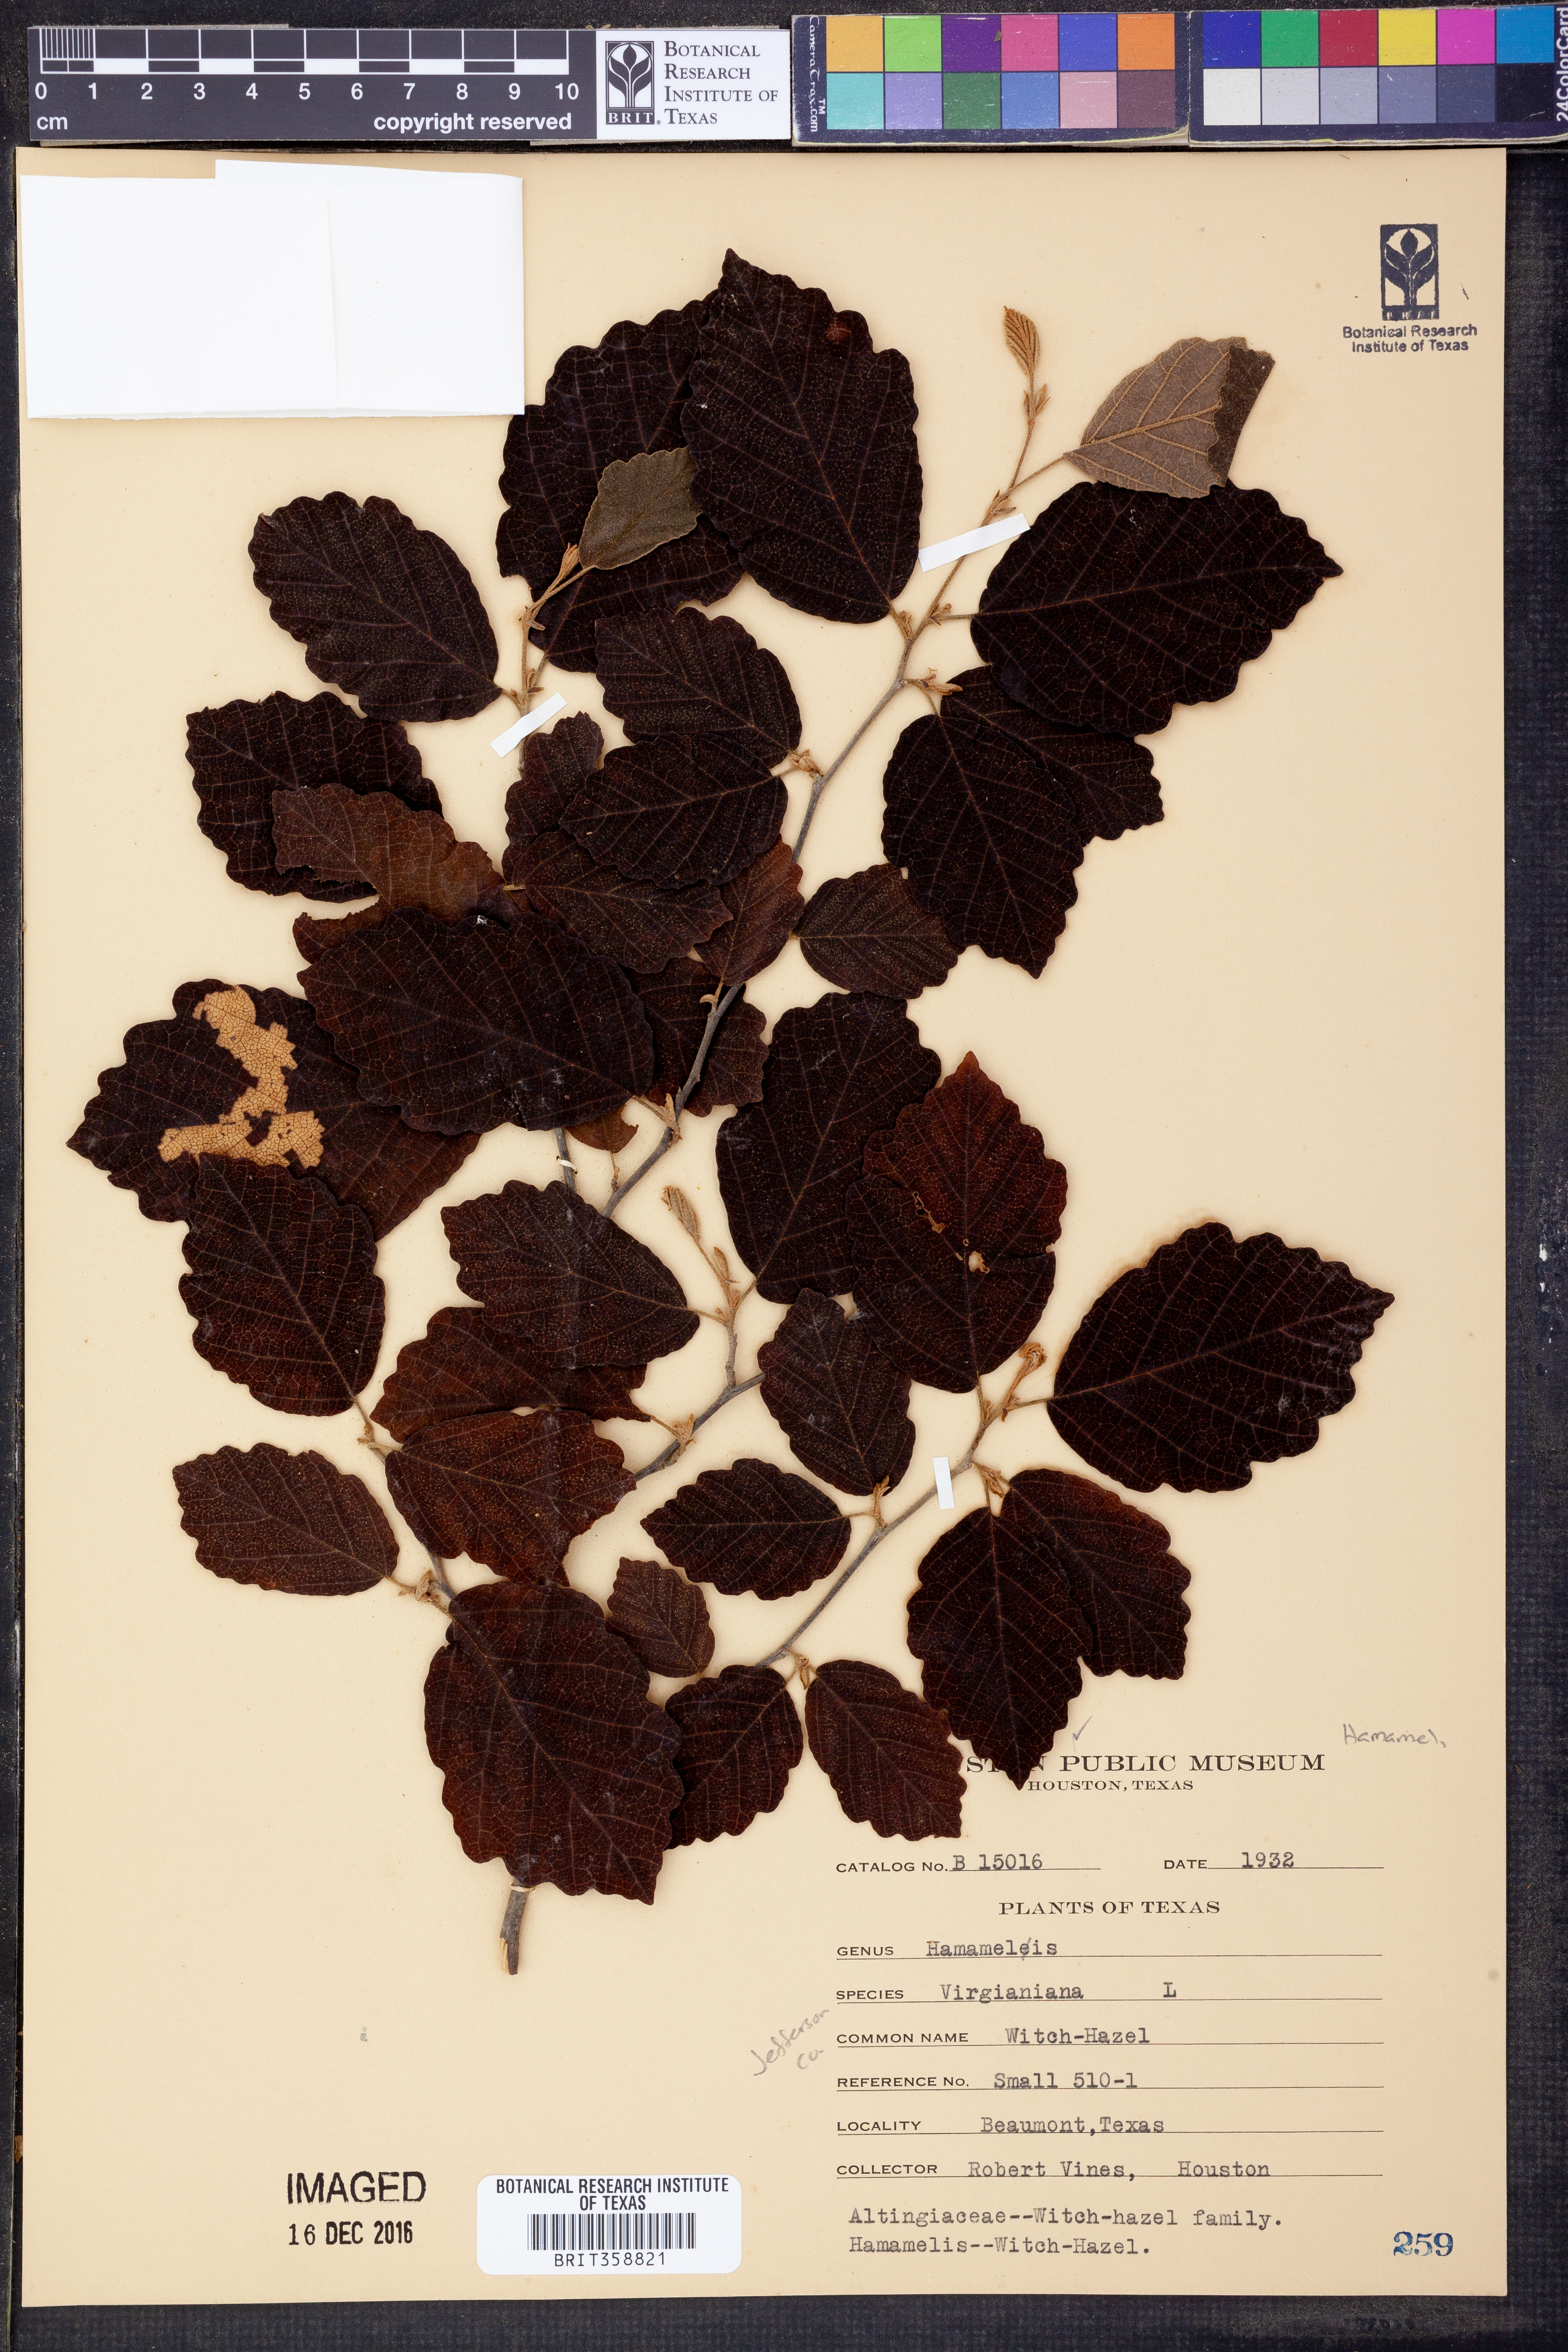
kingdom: Plantae
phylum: Tracheophyta
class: Magnoliopsida
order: Saxifragales
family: Hamamelidaceae
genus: Hamamelis
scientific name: Hamamelis virginiana
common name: Witch-hazel
